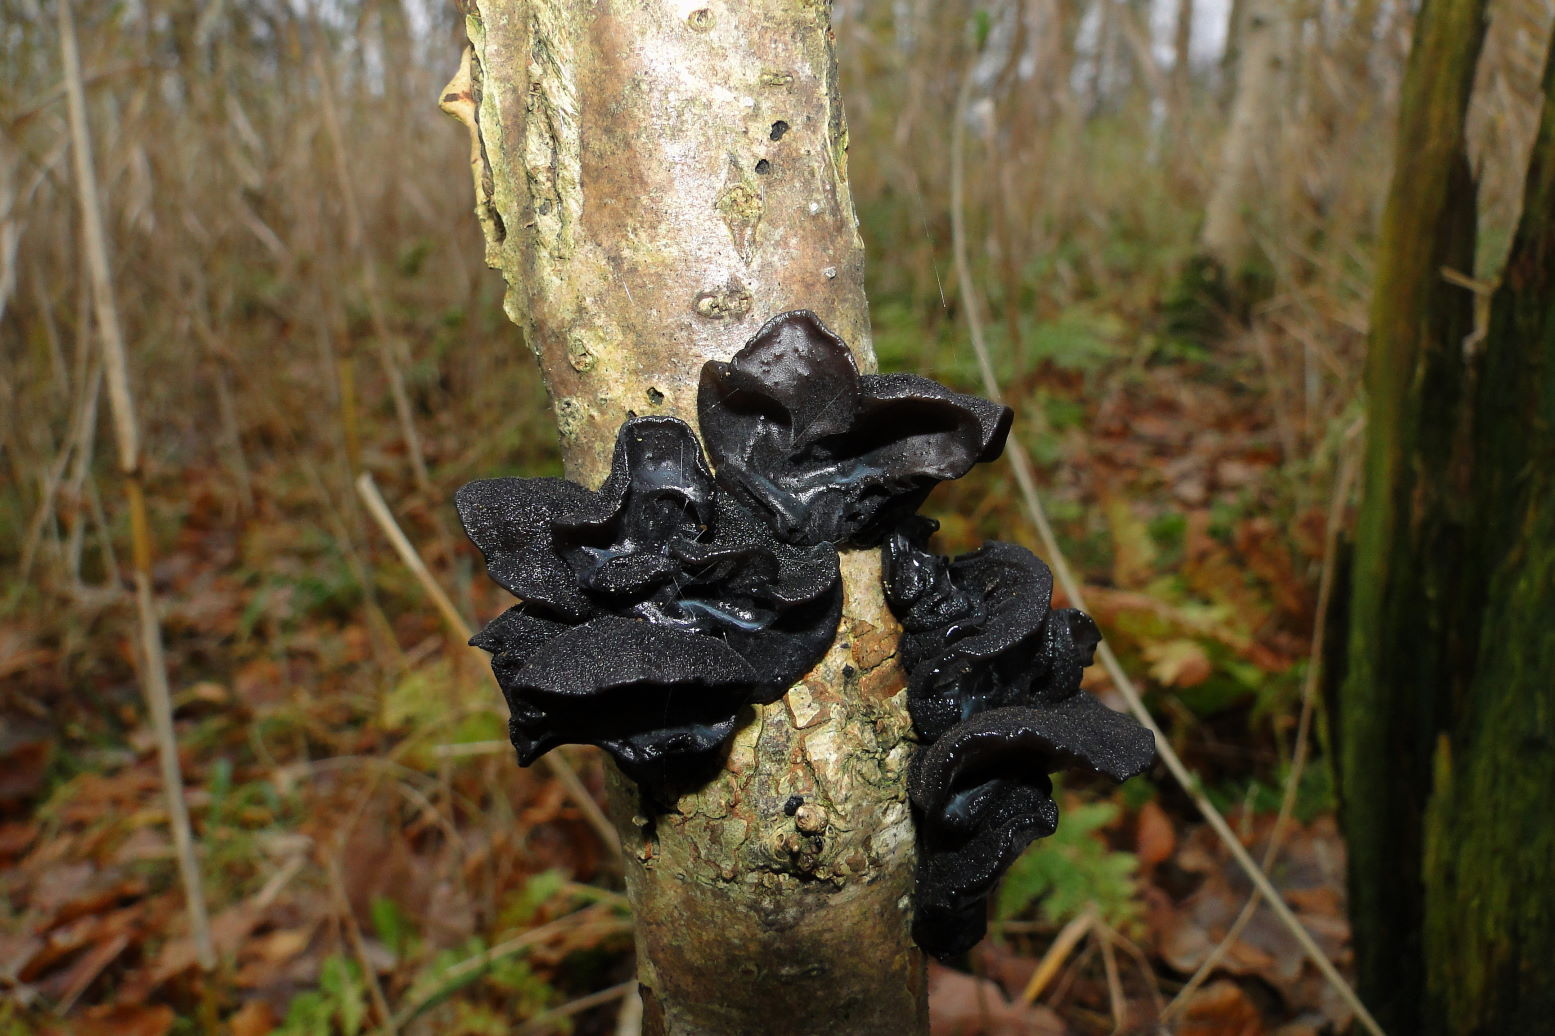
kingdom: Fungi
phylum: Basidiomycota
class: Agaricomycetes
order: Auriculariales
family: Auriculariaceae
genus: Exidia
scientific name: Exidia glandulosa
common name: ege-bævretop
